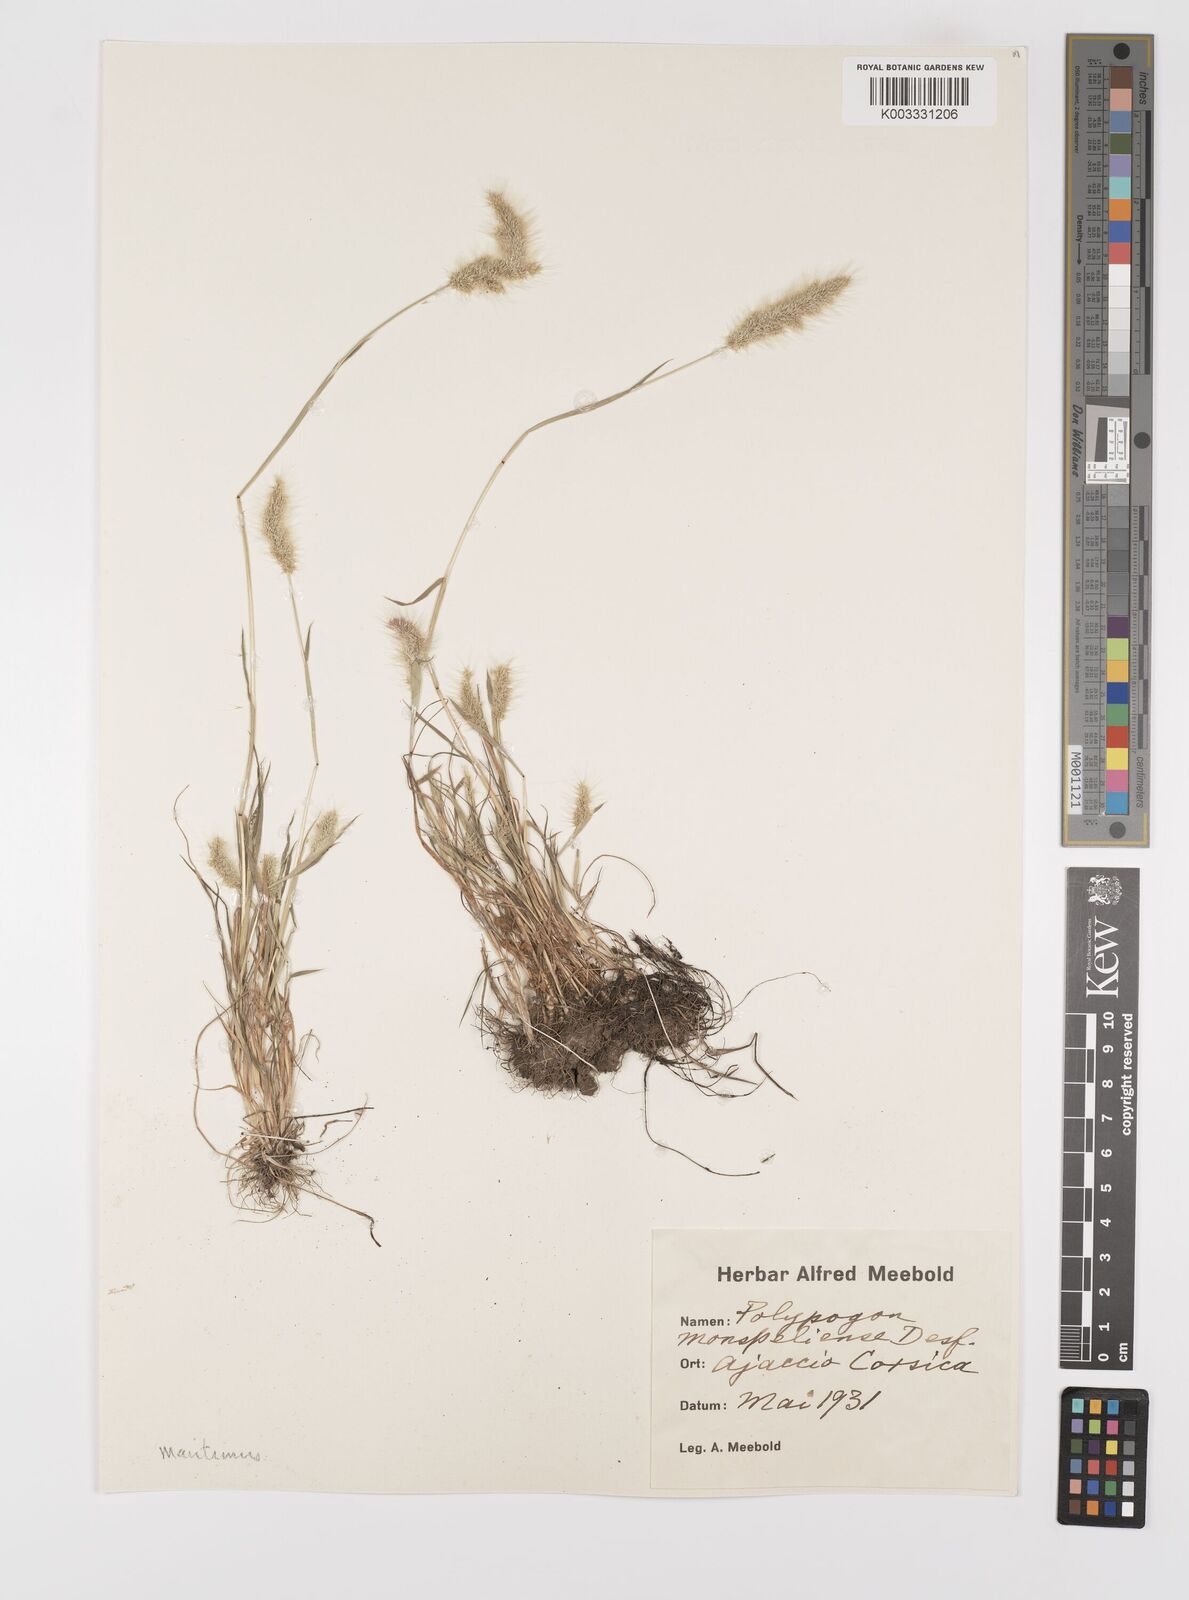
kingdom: Plantae
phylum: Tracheophyta
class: Liliopsida
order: Poales
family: Poaceae
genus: Polypogon
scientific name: Polypogon maritimus
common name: Mediterranean rabbitsfoot grass
